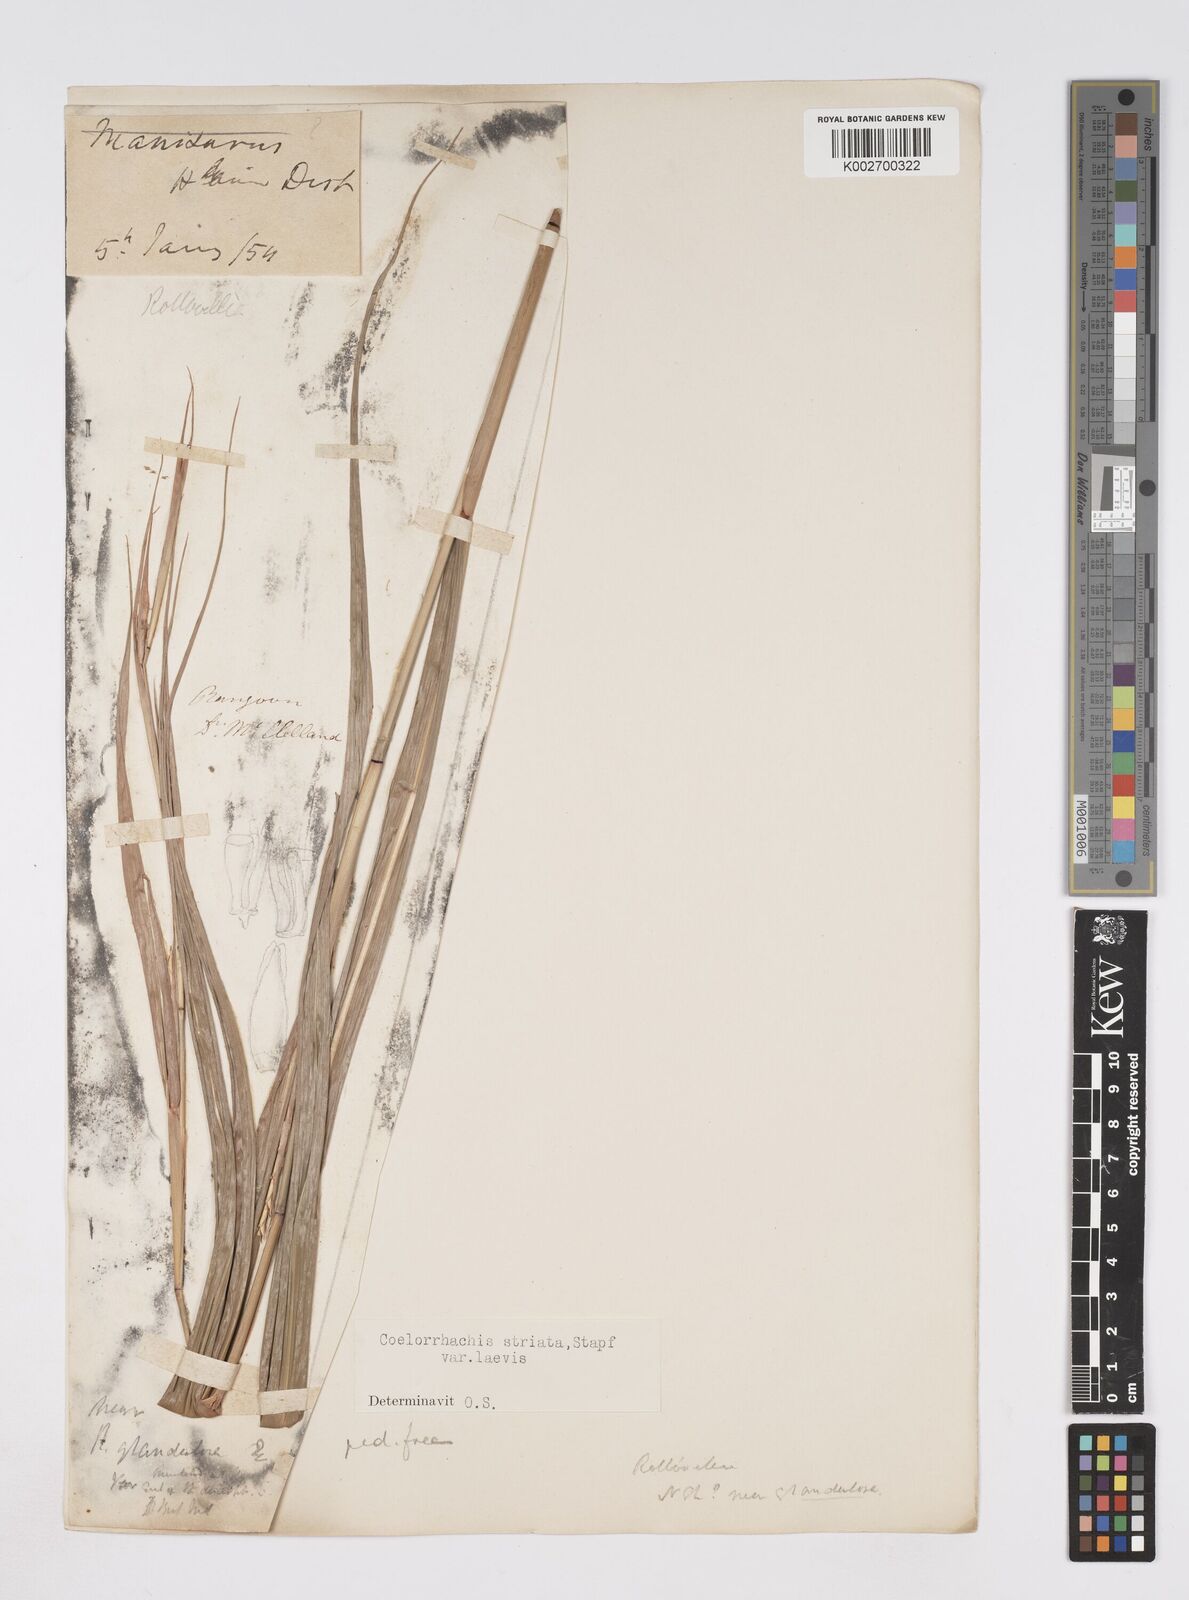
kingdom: Plantae
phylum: Tracheophyta
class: Liliopsida
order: Poales
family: Poaceae
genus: Rottboellia
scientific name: Rottboellia striata
